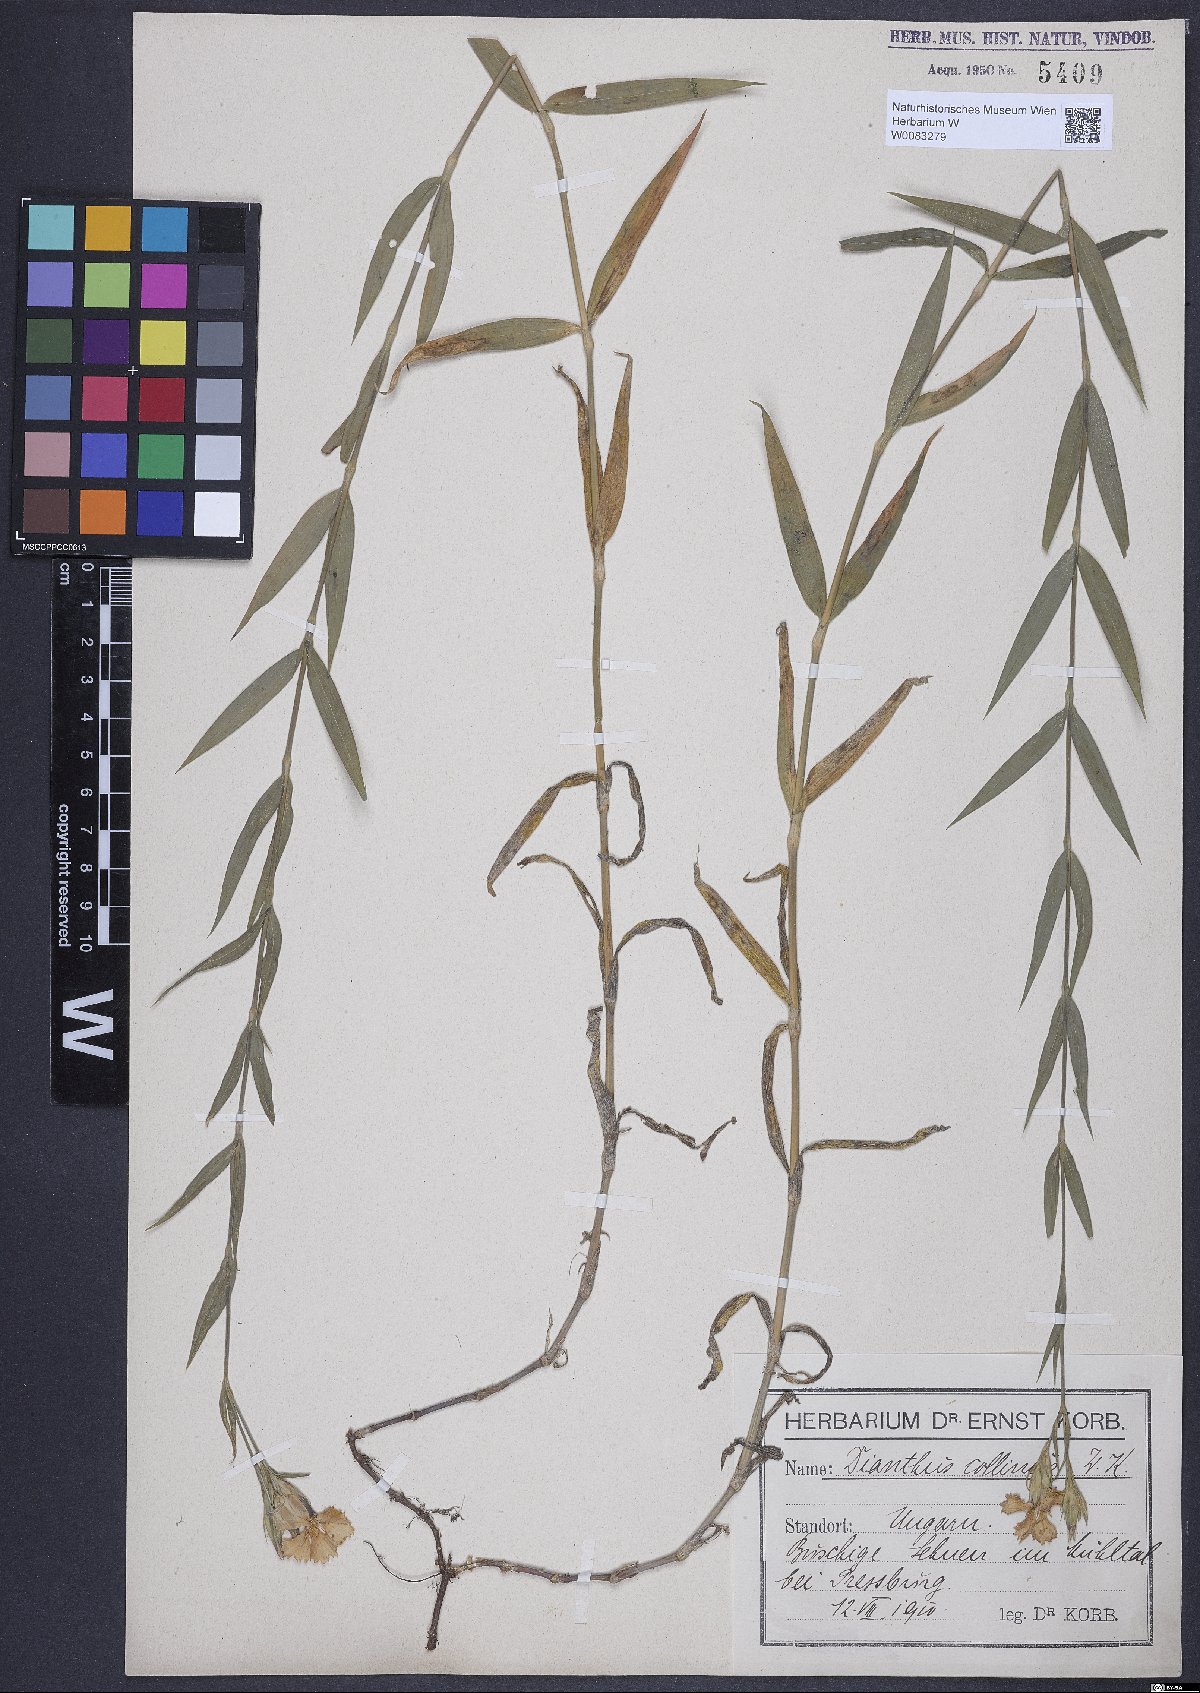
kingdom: Plantae
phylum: Tracheophyta
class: Magnoliopsida
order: Caryophyllales
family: Caryophyllaceae
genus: Dianthus
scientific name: Dianthus collinus
